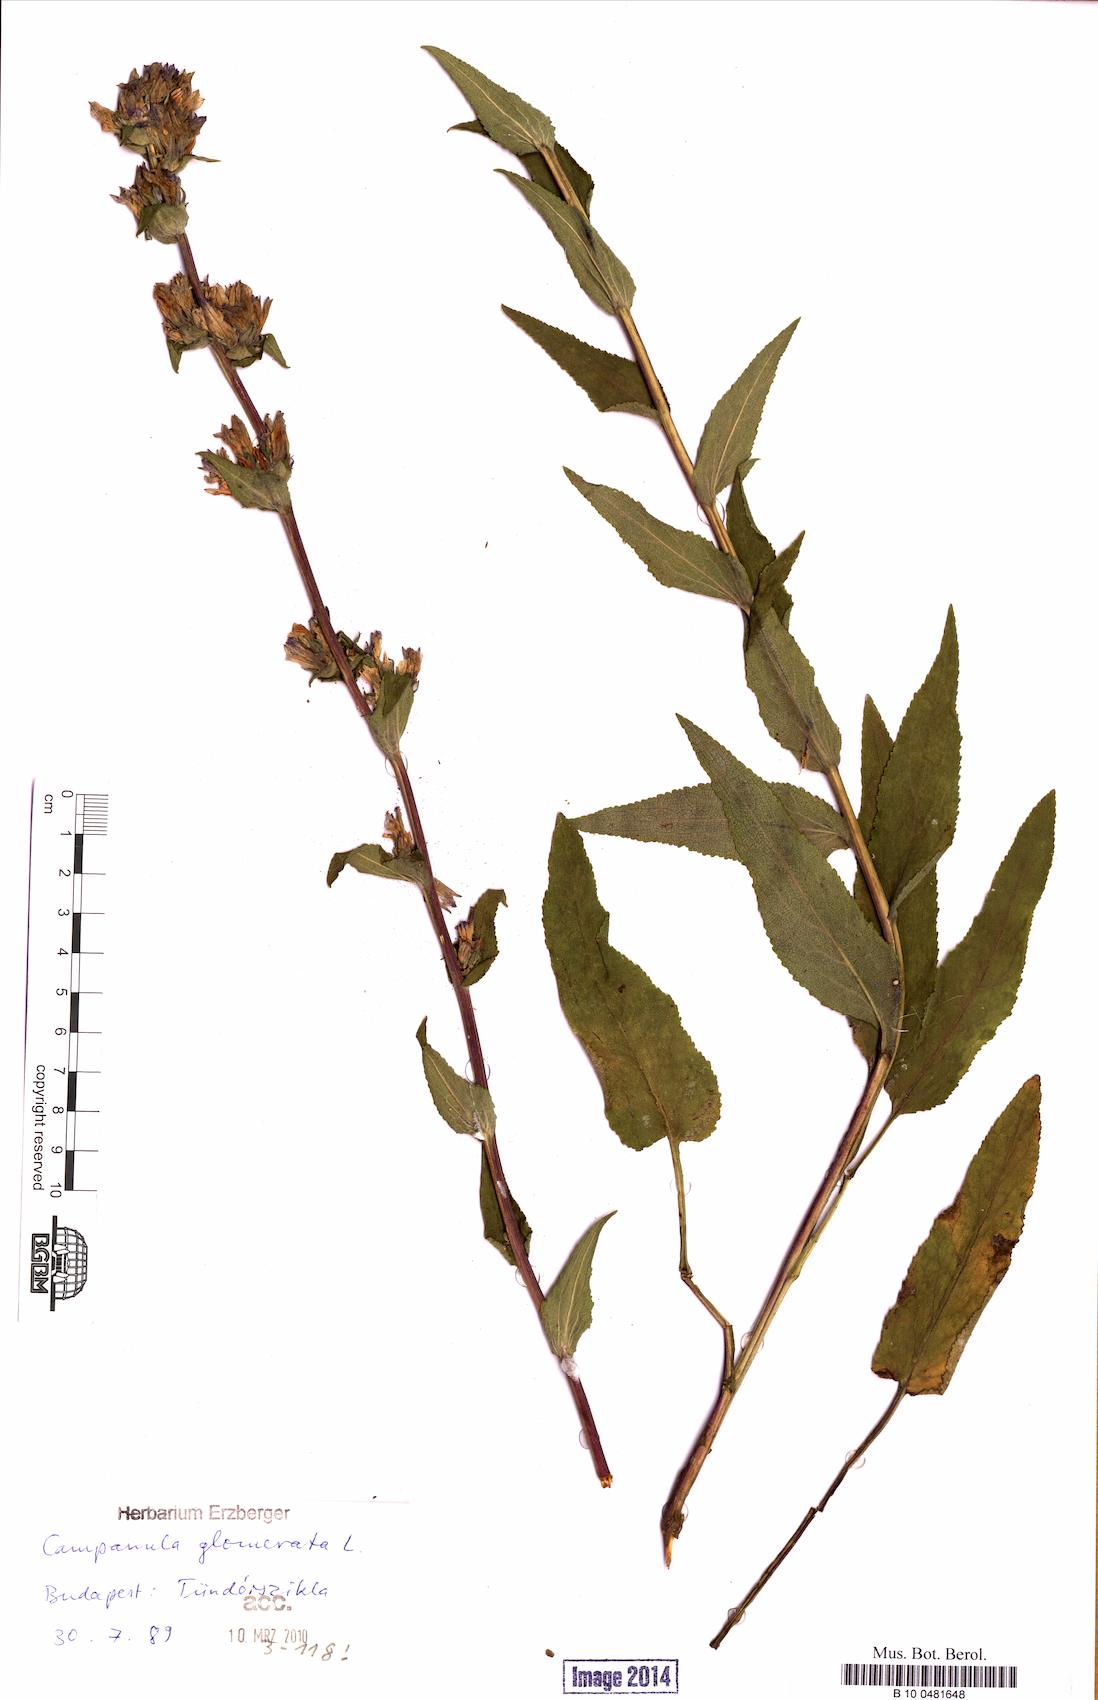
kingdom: Plantae
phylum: Tracheophyta
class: Magnoliopsida
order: Asterales
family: Campanulaceae
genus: Campanula
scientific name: Campanula glomerata
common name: Clustered bellflower
